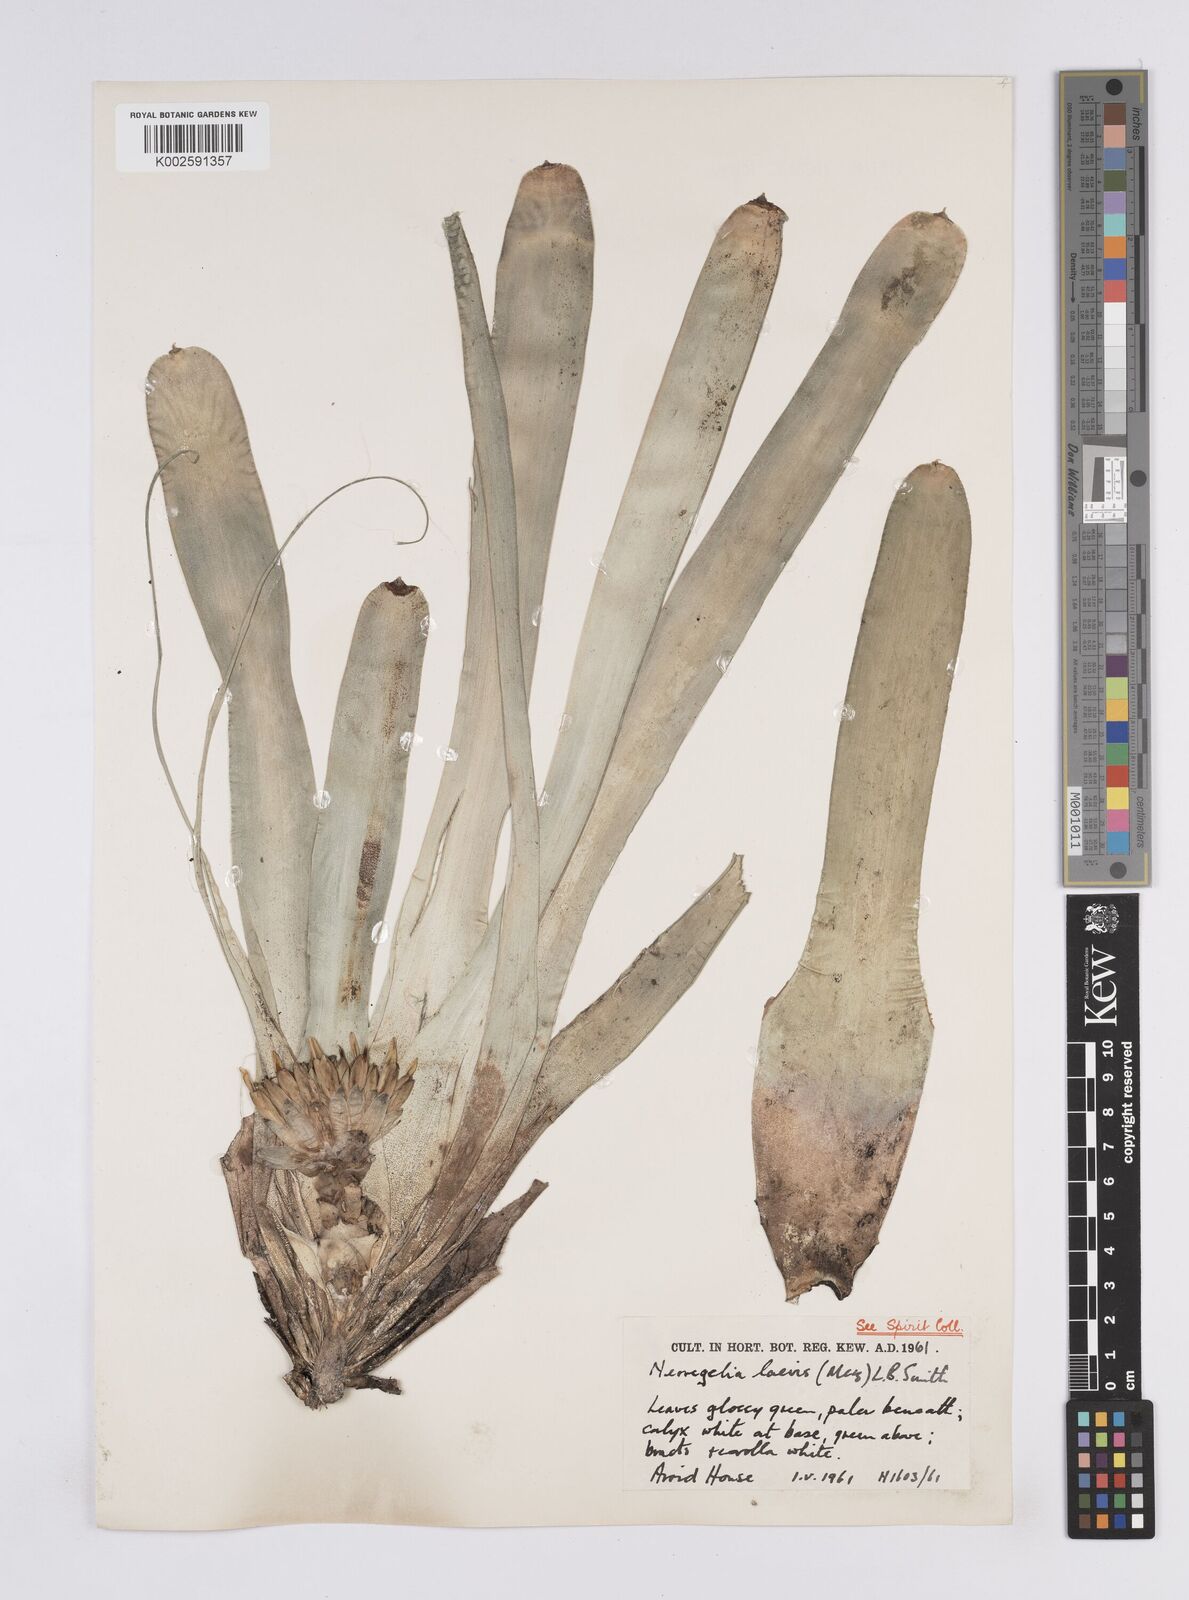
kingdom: Plantae
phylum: Tracheophyta
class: Liliopsida
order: Poales
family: Bromeliaceae
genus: Neoregelia
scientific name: Neoregelia laevis
